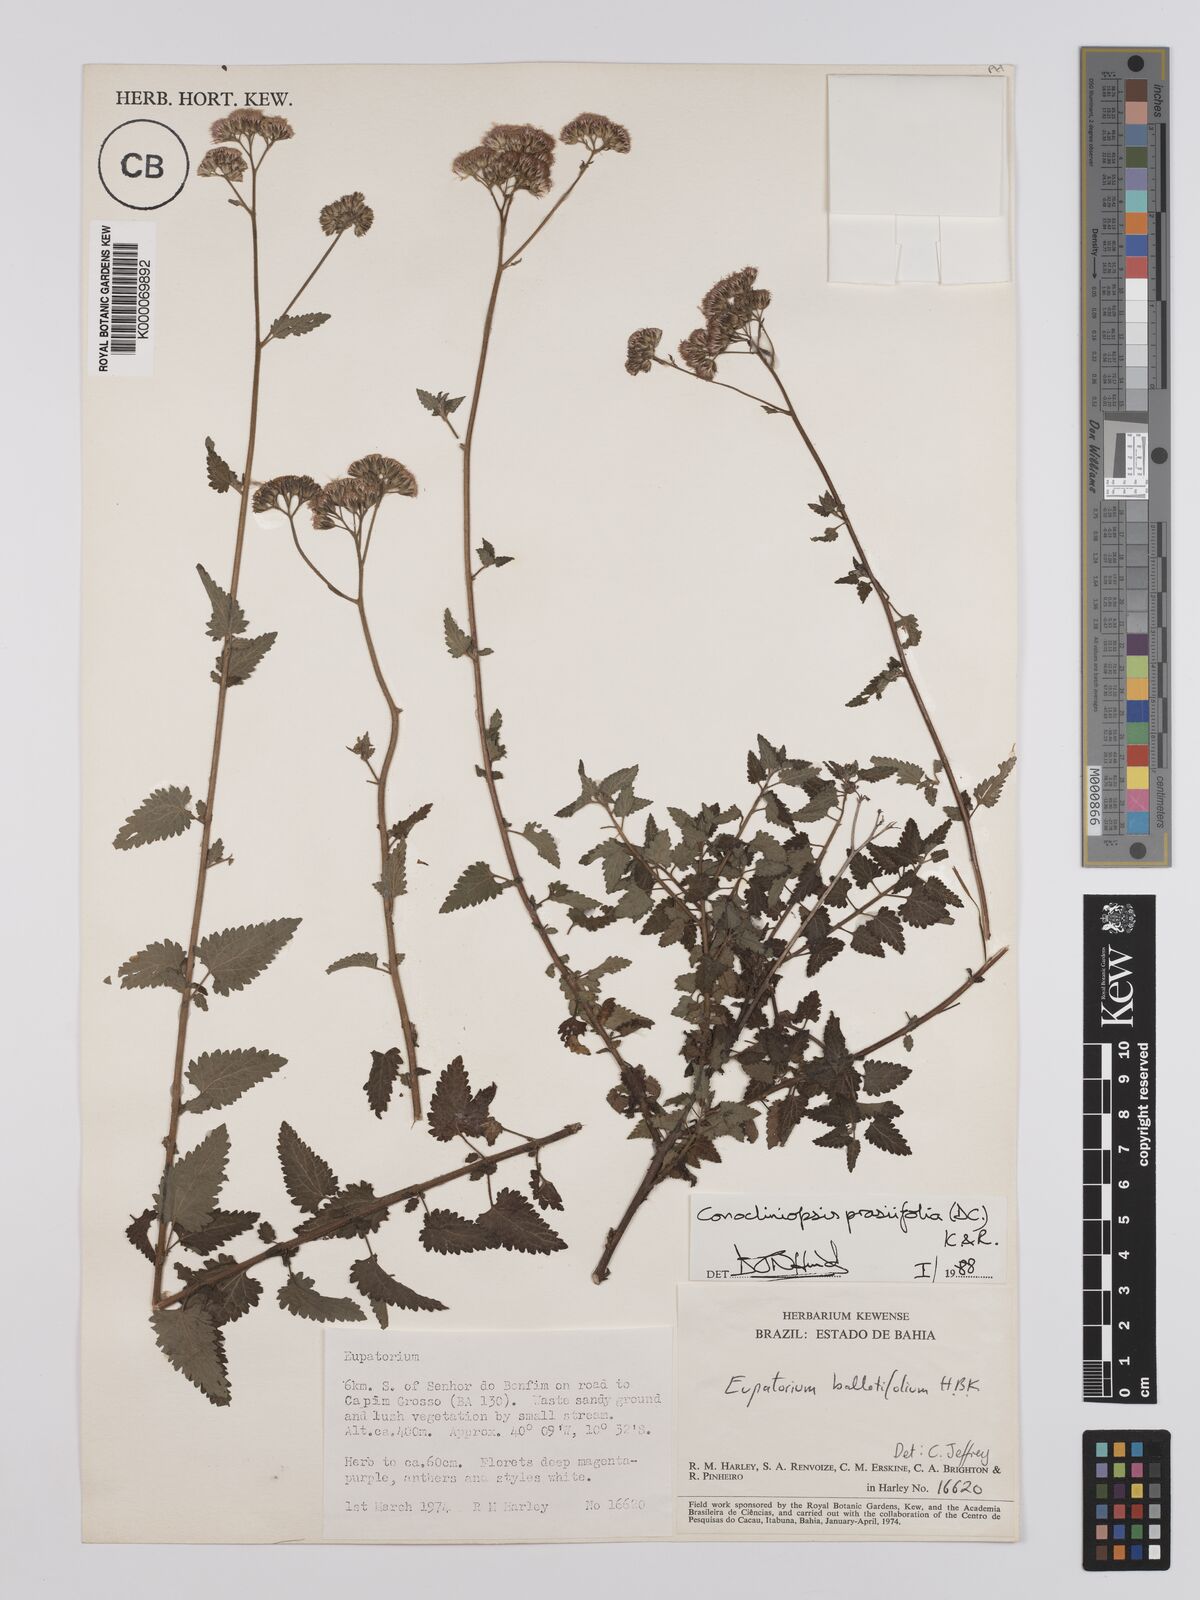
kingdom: Plantae
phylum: Tracheophyta
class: Magnoliopsida
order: Asterales
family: Asteraceae
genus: Conocliniopsis
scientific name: Conocliniopsis grossedentata
